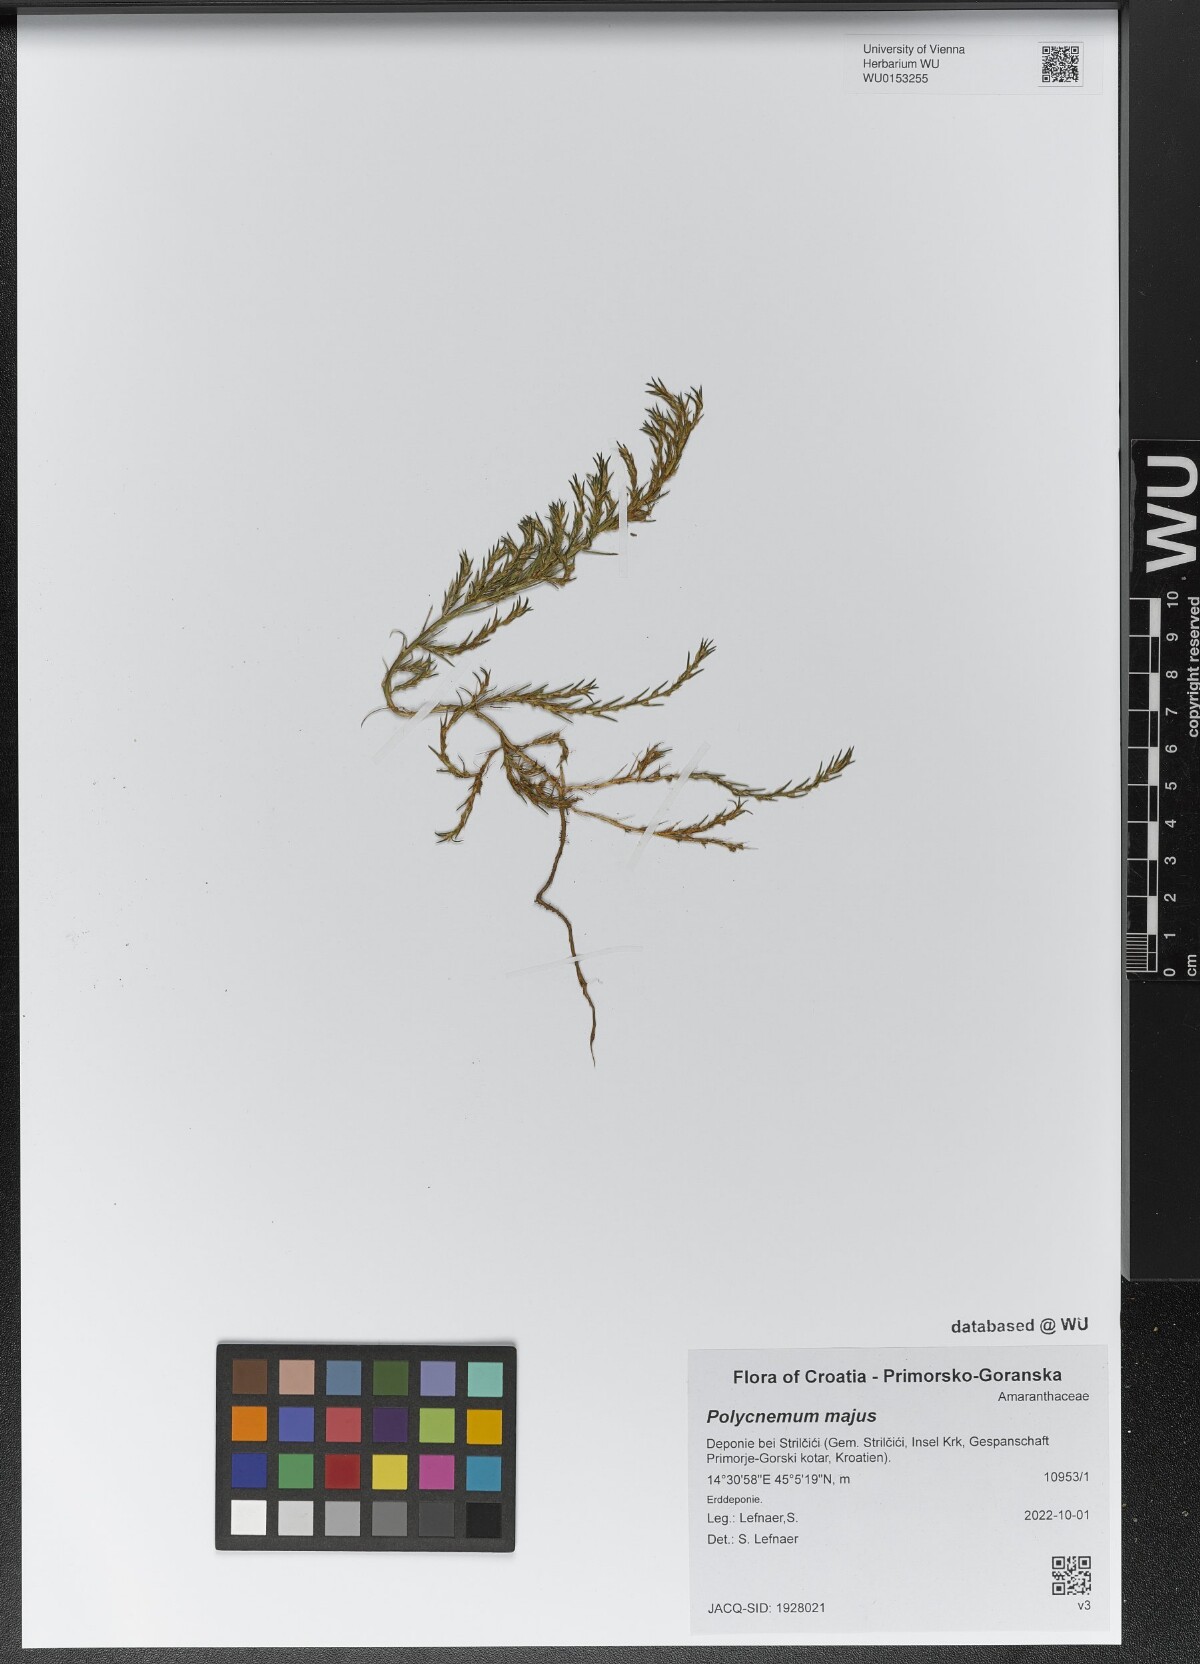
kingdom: Plantae
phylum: Tracheophyta
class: Magnoliopsida
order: Caryophyllales
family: Amaranthaceae
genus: Polycnemum
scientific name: Polycnemum majus
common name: Giant needleleaf
